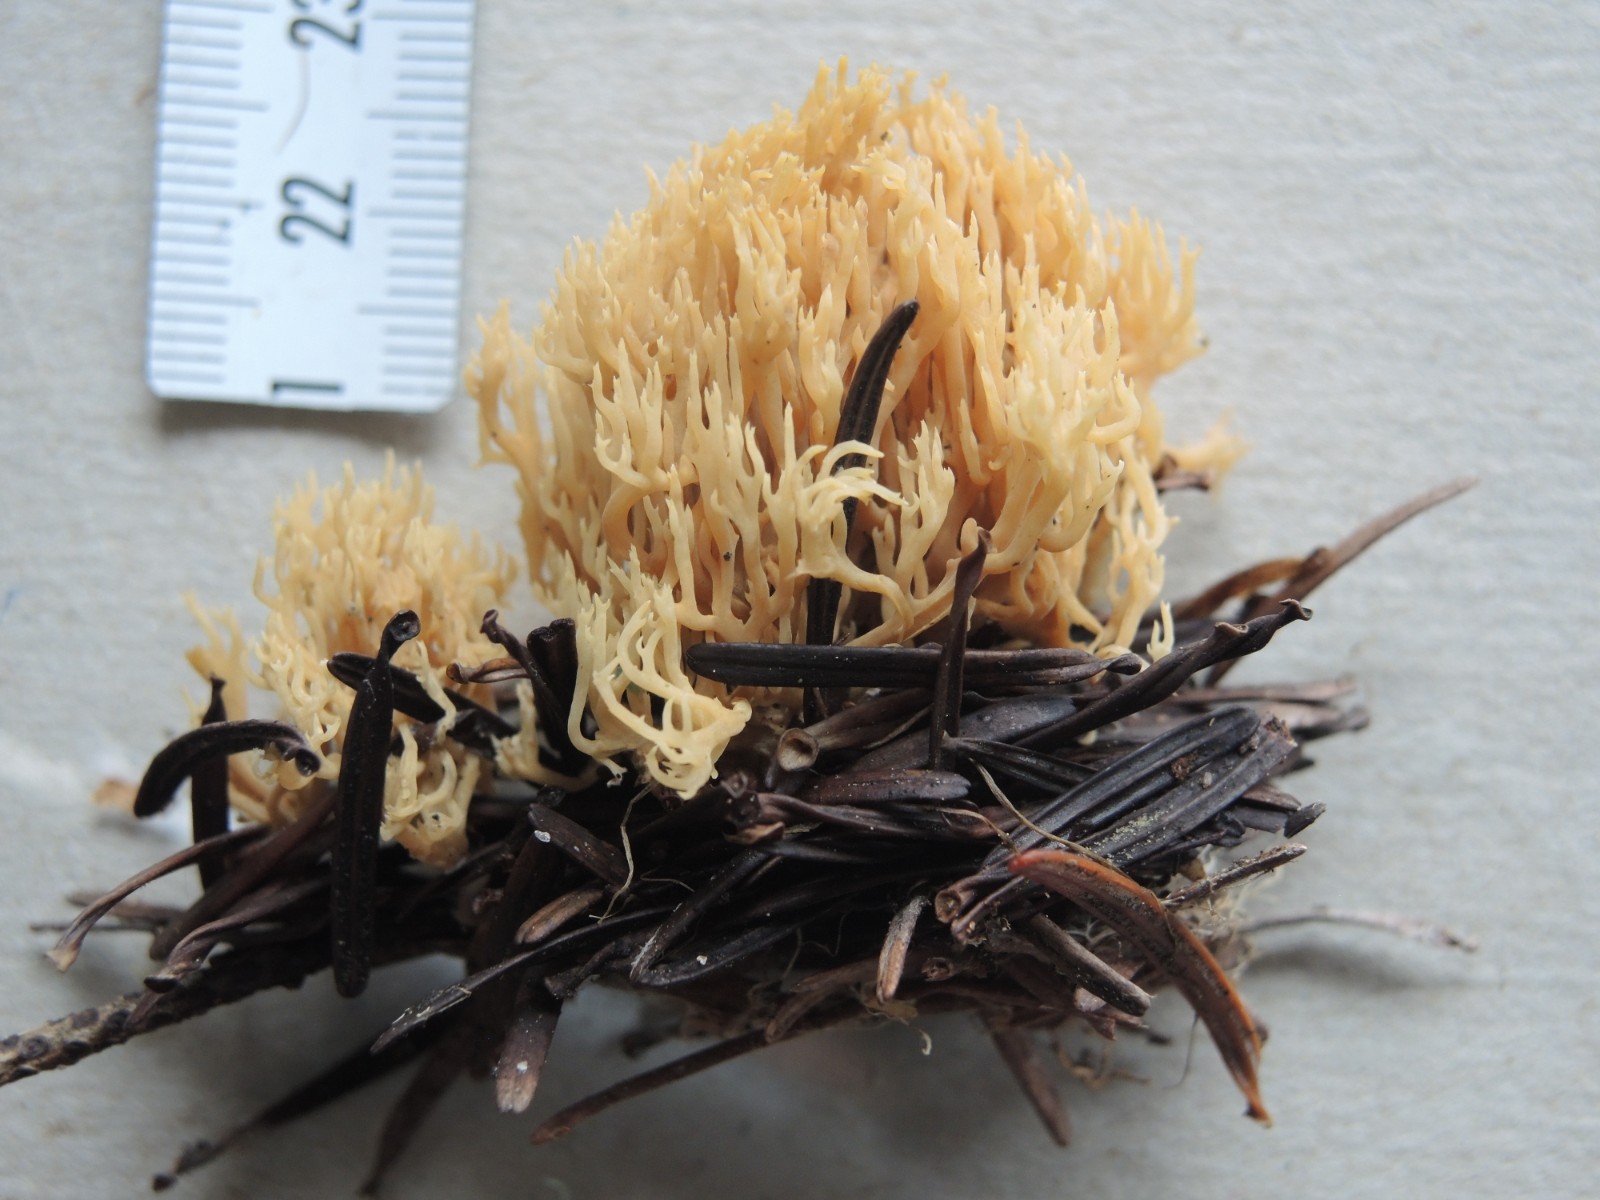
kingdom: Fungi
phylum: Basidiomycota
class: Agaricomycetes
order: Gomphales
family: Gomphaceae
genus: Phaeoclavulina
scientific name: Phaeoclavulina corrugata
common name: peber-koralsvamp
